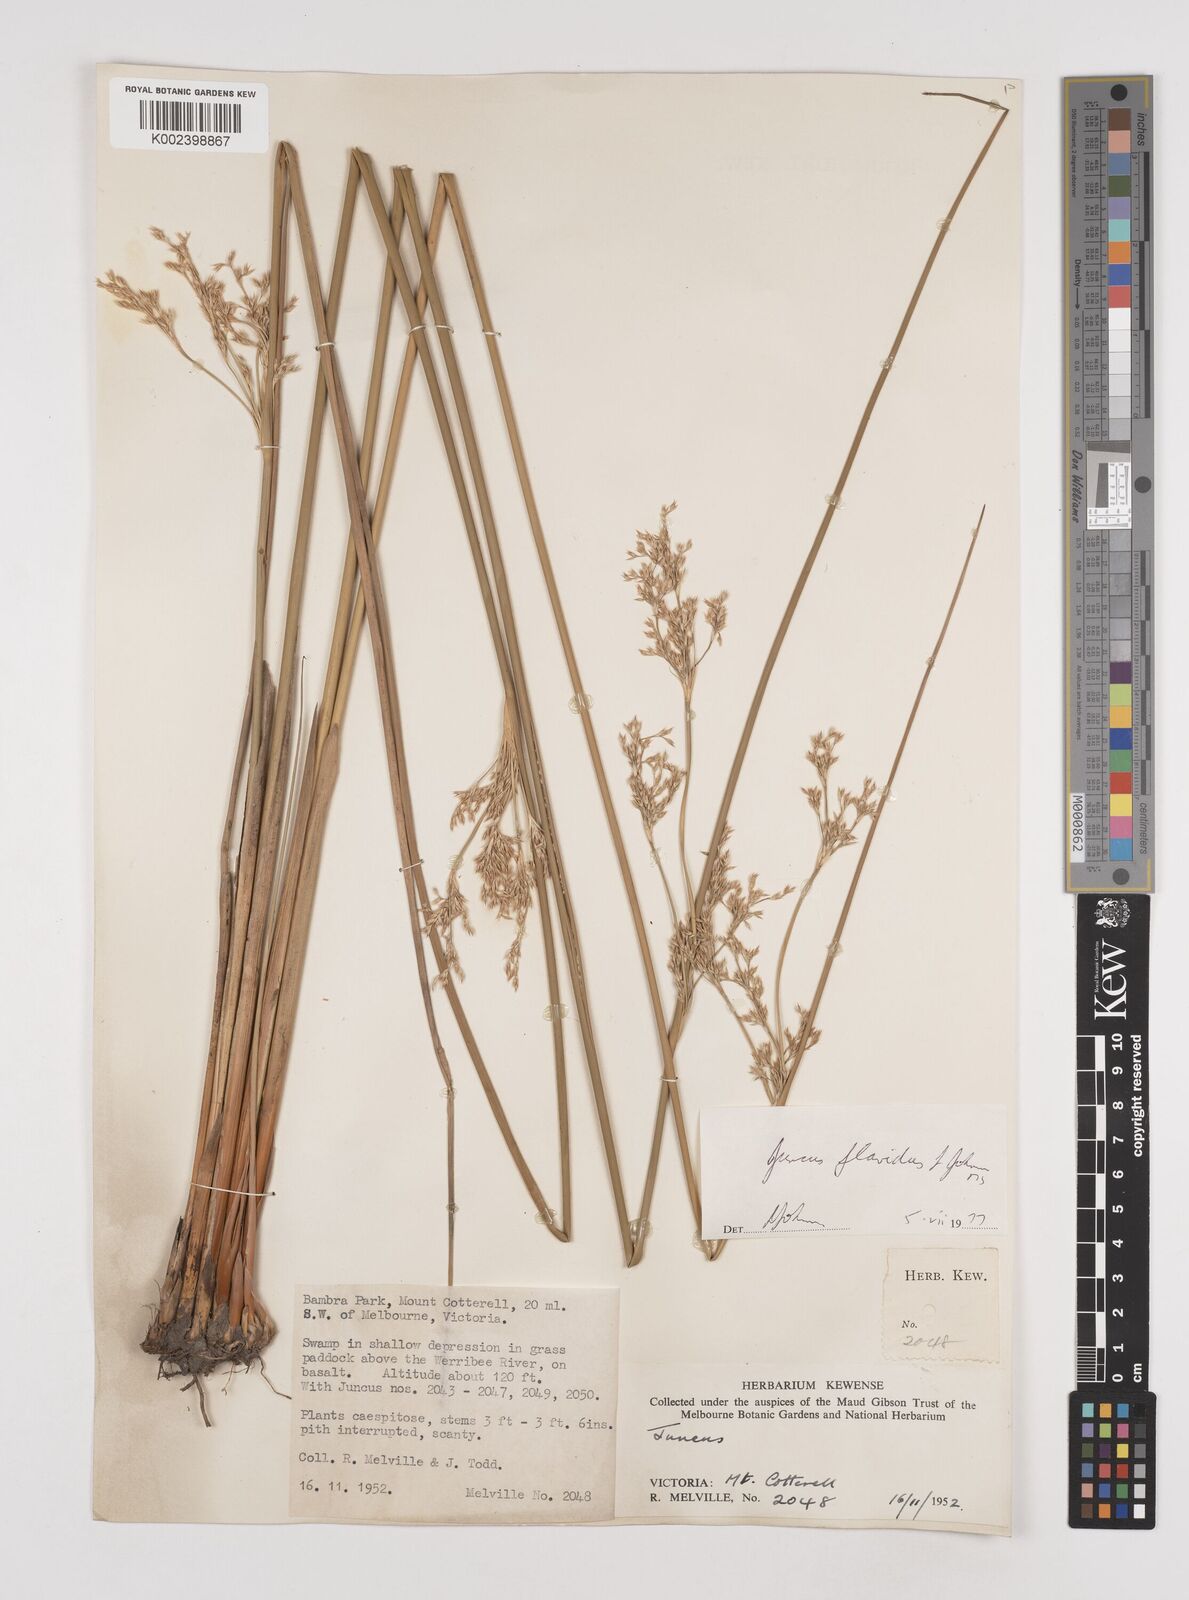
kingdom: Plantae
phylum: Tracheophyta
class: Liliopsida
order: Poales
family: Juncaceae
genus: Juncus
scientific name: Juncus flavidus
